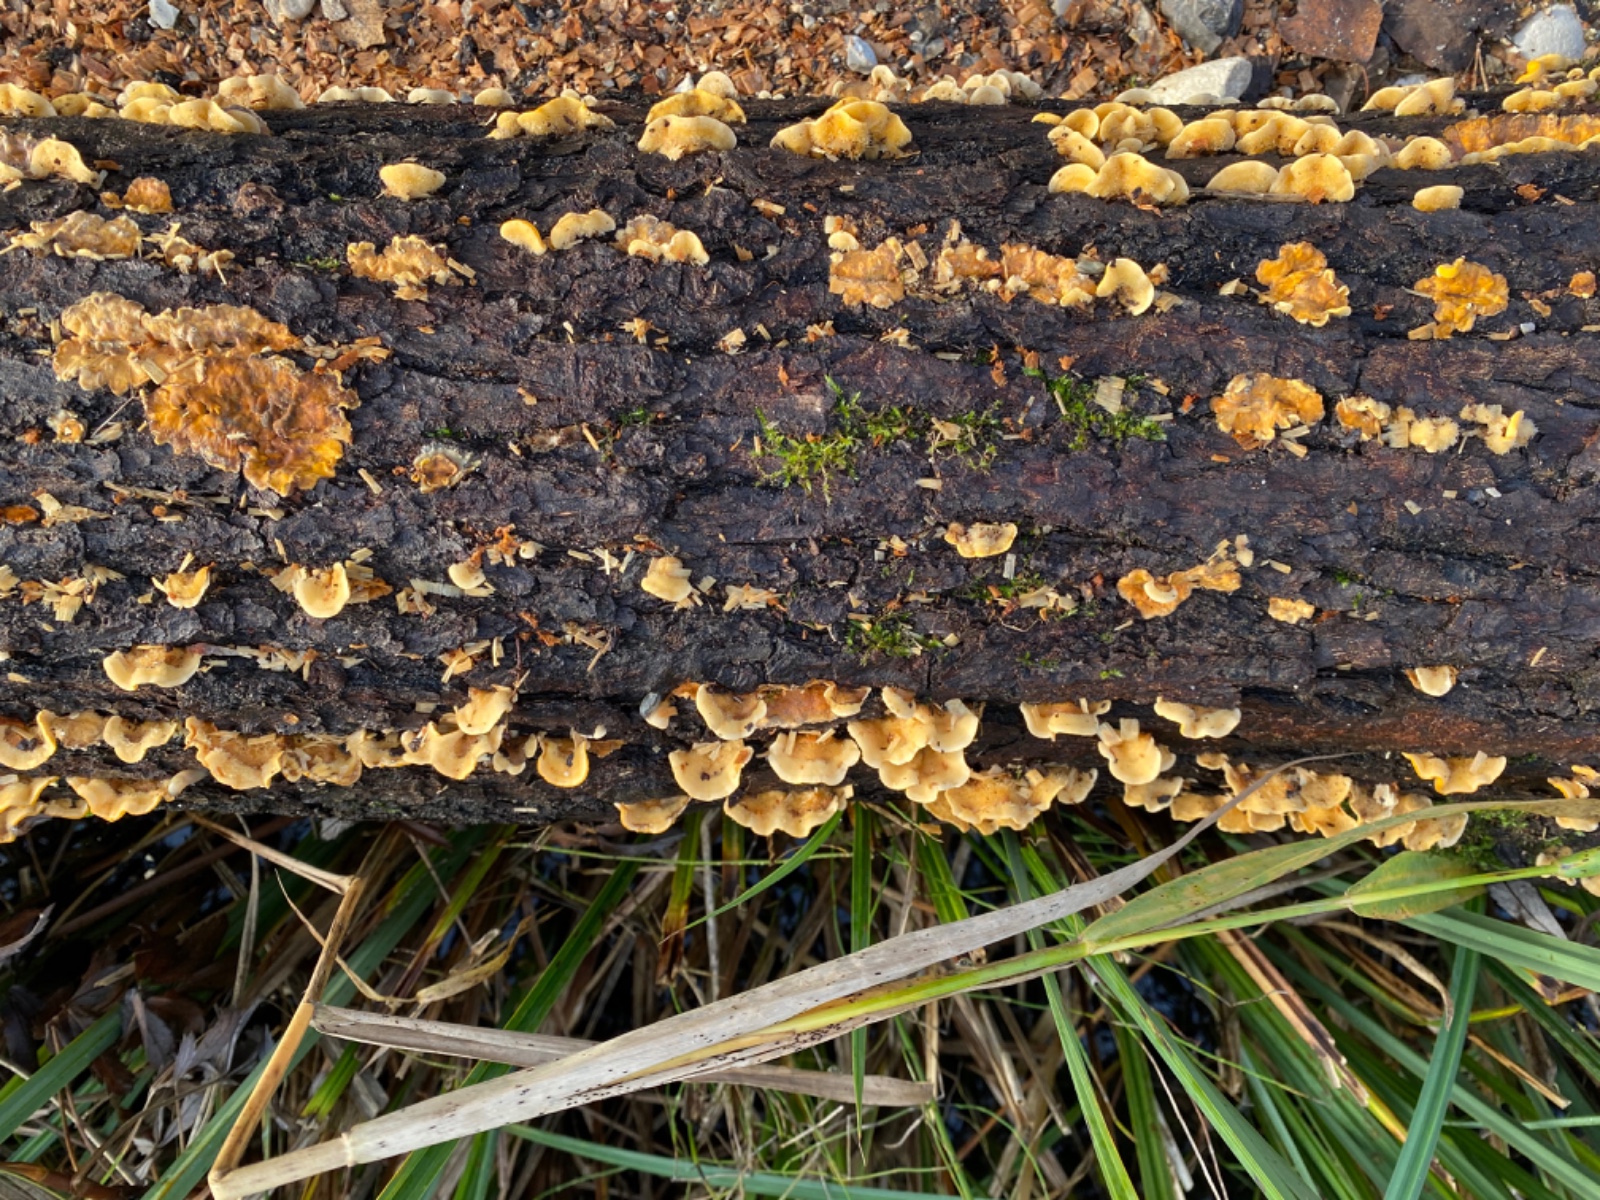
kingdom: Fungi
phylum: Basidiomycota
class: Agaricomycetes
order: Russulales
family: Stereaceae
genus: Stereum
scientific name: Stereum hirsutum
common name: håret lædersvamp
